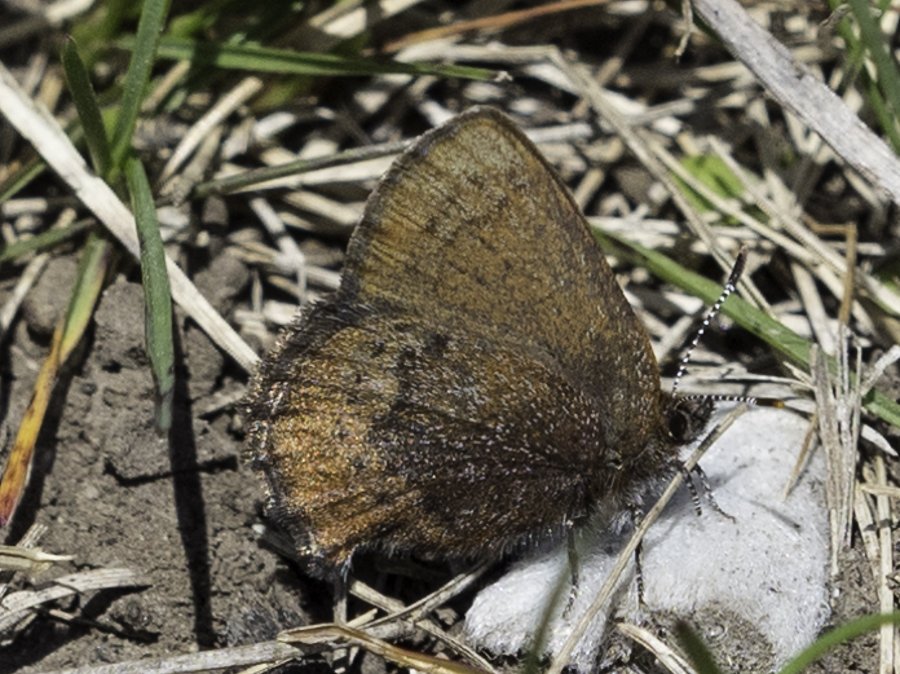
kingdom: Animalia
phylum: Arthropoda
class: Insecta
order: Lepidoptera
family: Lycaenidae
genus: Incisalia
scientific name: Incisalia irioides
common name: Brown Elfin
